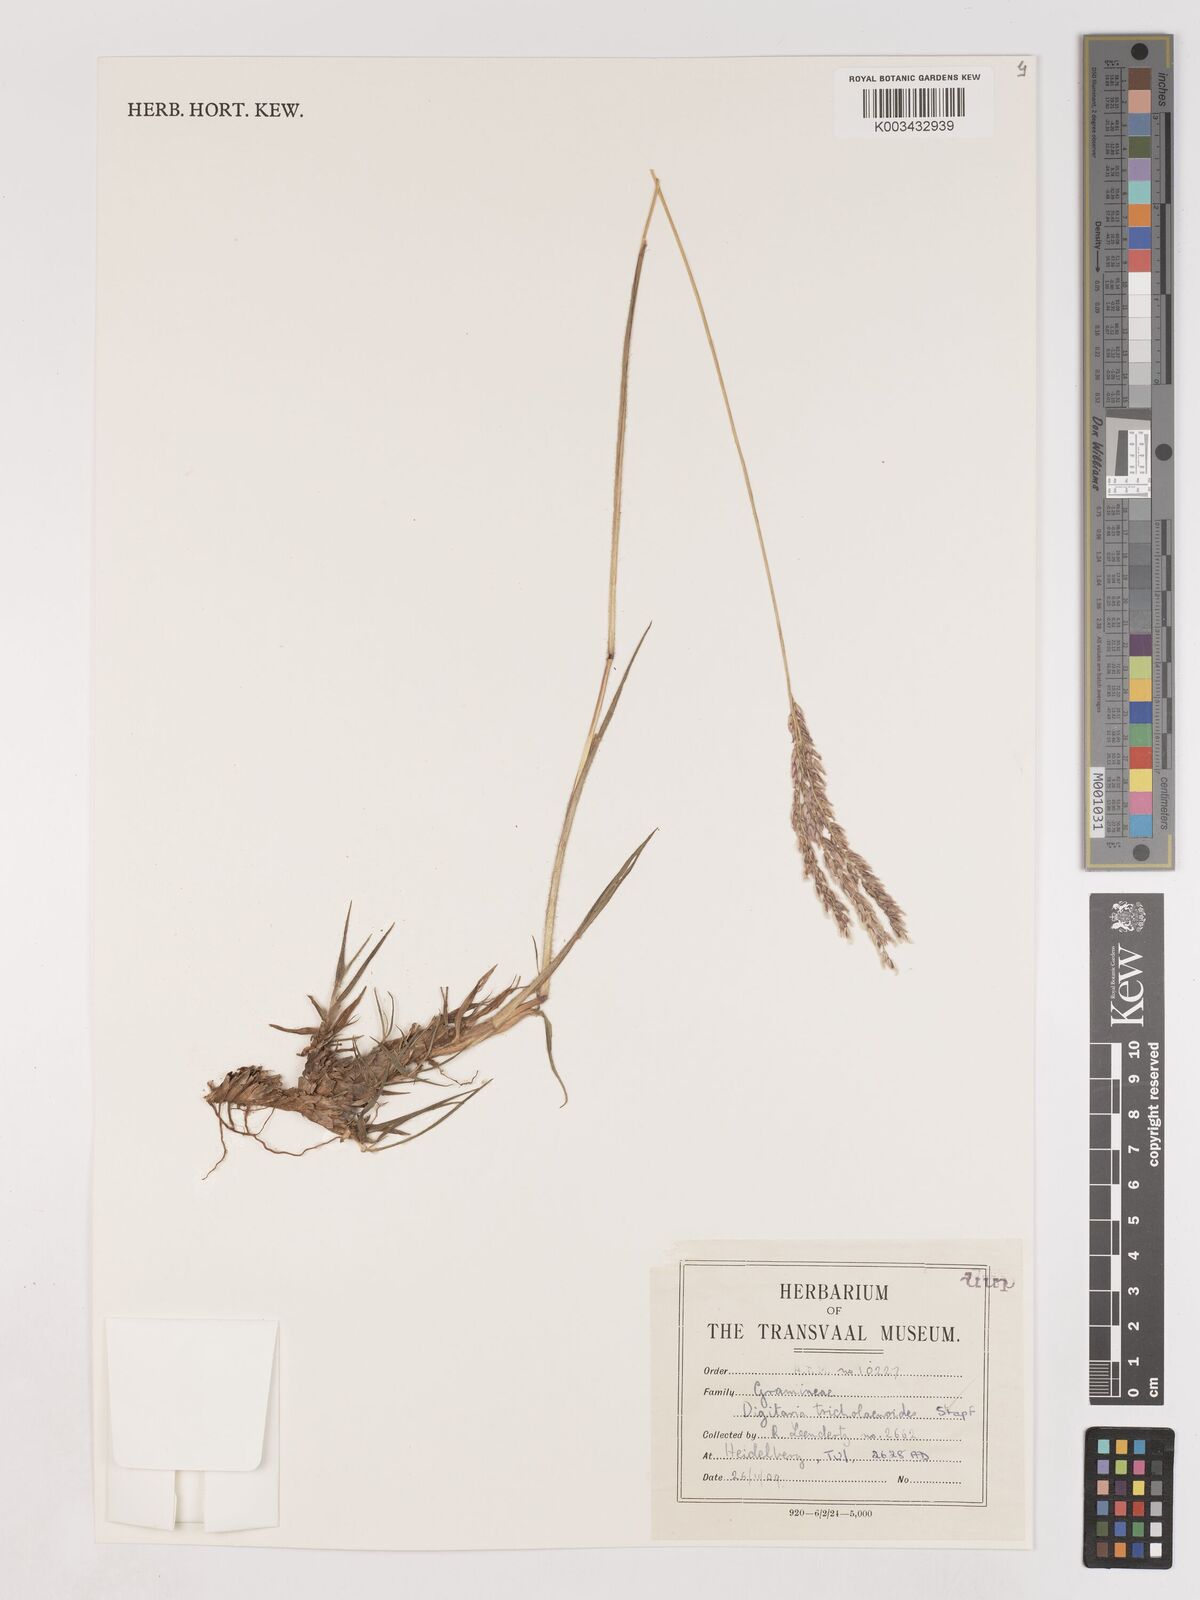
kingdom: Plantae
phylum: Tracheophyta
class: Liliopsida
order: Poales
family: Poaceae
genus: Digitaria
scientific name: Digitaria tricholaenoides
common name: Purple finger grass
